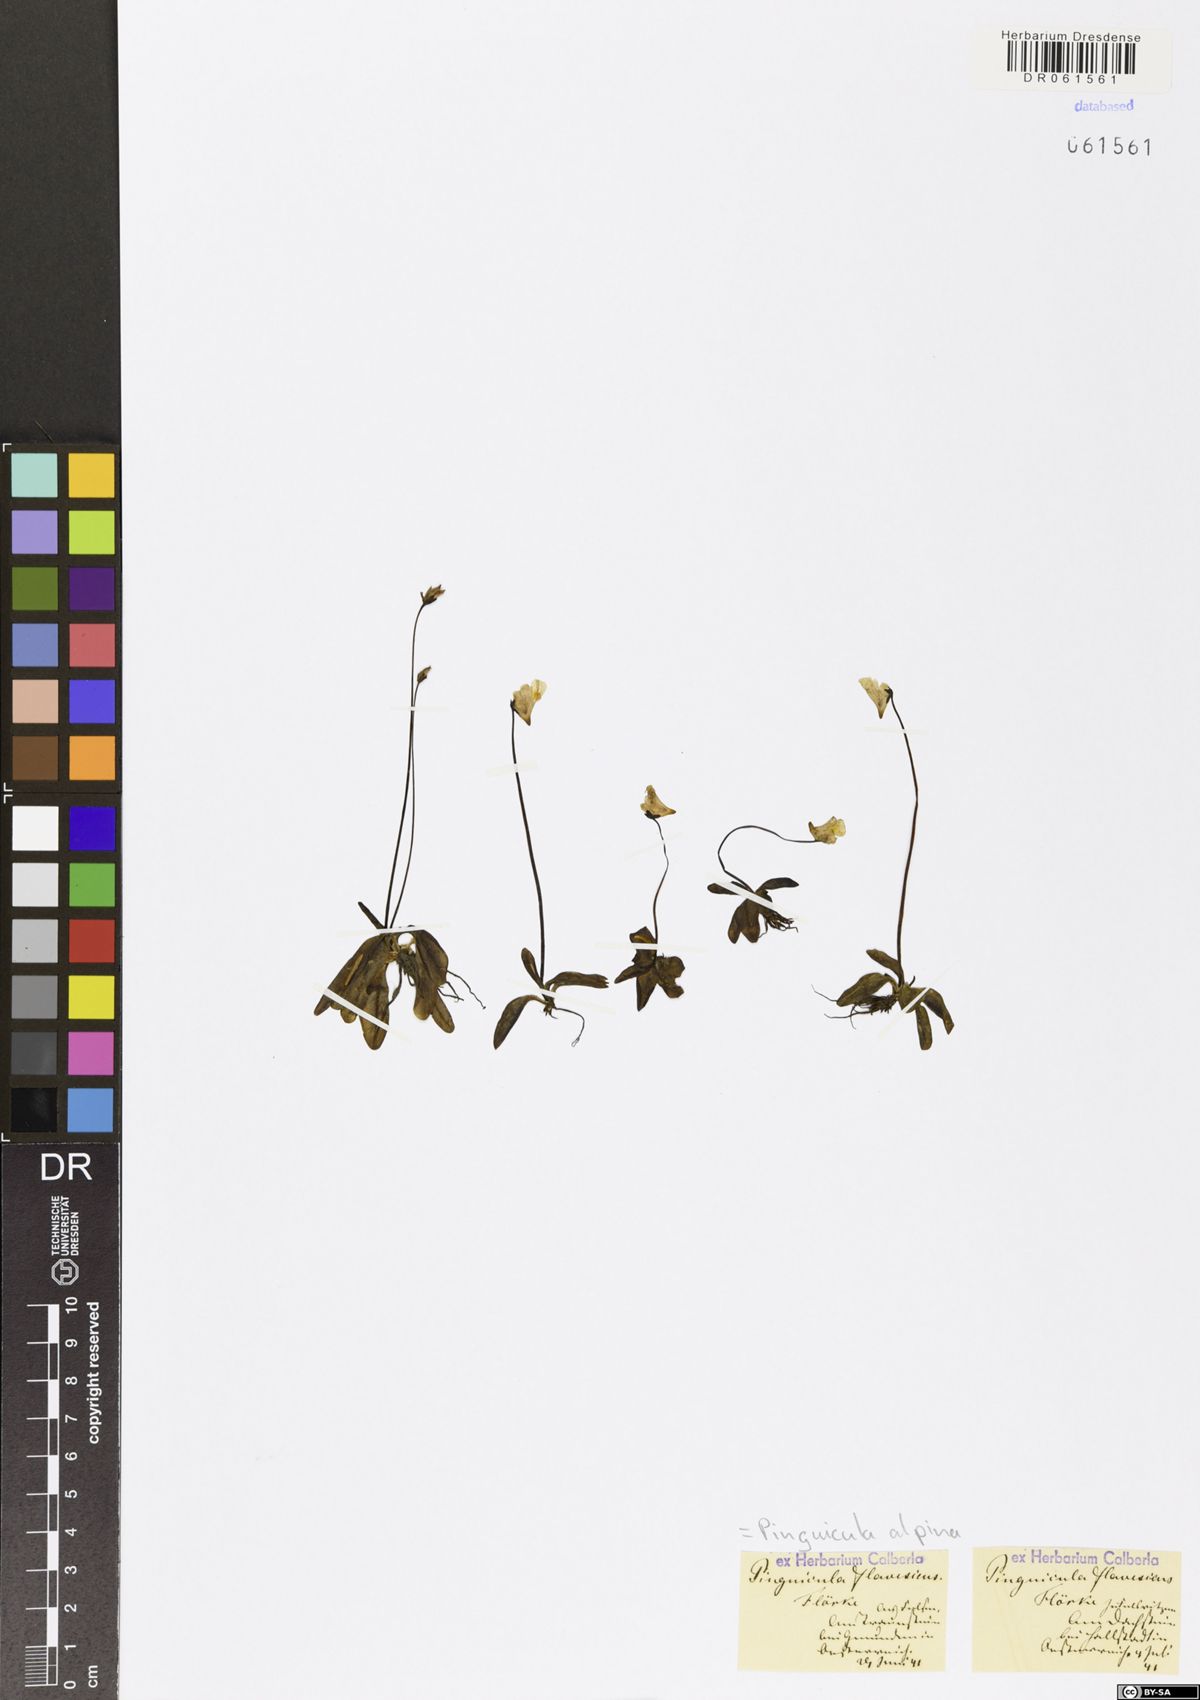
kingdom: Plantae
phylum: Tracheophyta
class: Magnoliopsida
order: Lamiales
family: Lentibulariaceae
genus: Pinguicula
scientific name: Pinguicula alpina
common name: Alpine butterwort
